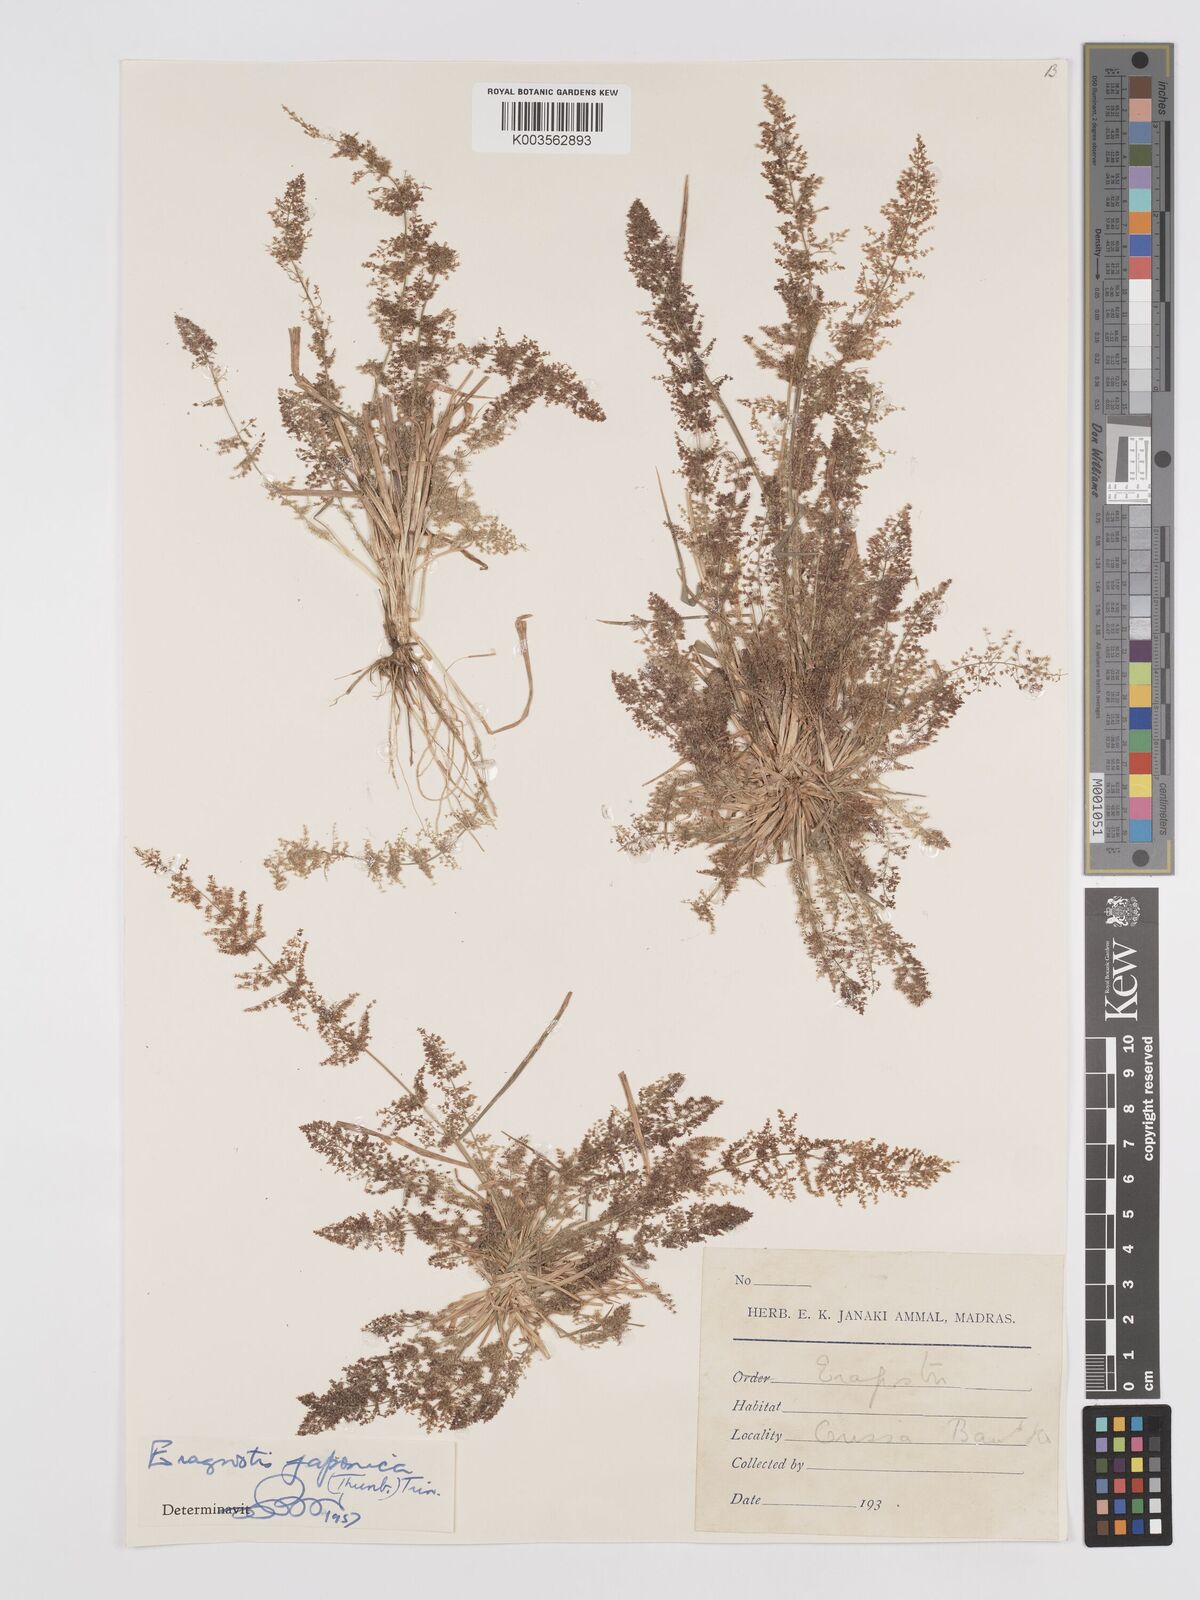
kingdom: Plantae
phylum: Tracheophyta
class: Liliopsida
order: Poales
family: Poaceae
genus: Eragrostis
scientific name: Eragrostis japonica
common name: Pond lovegrass
